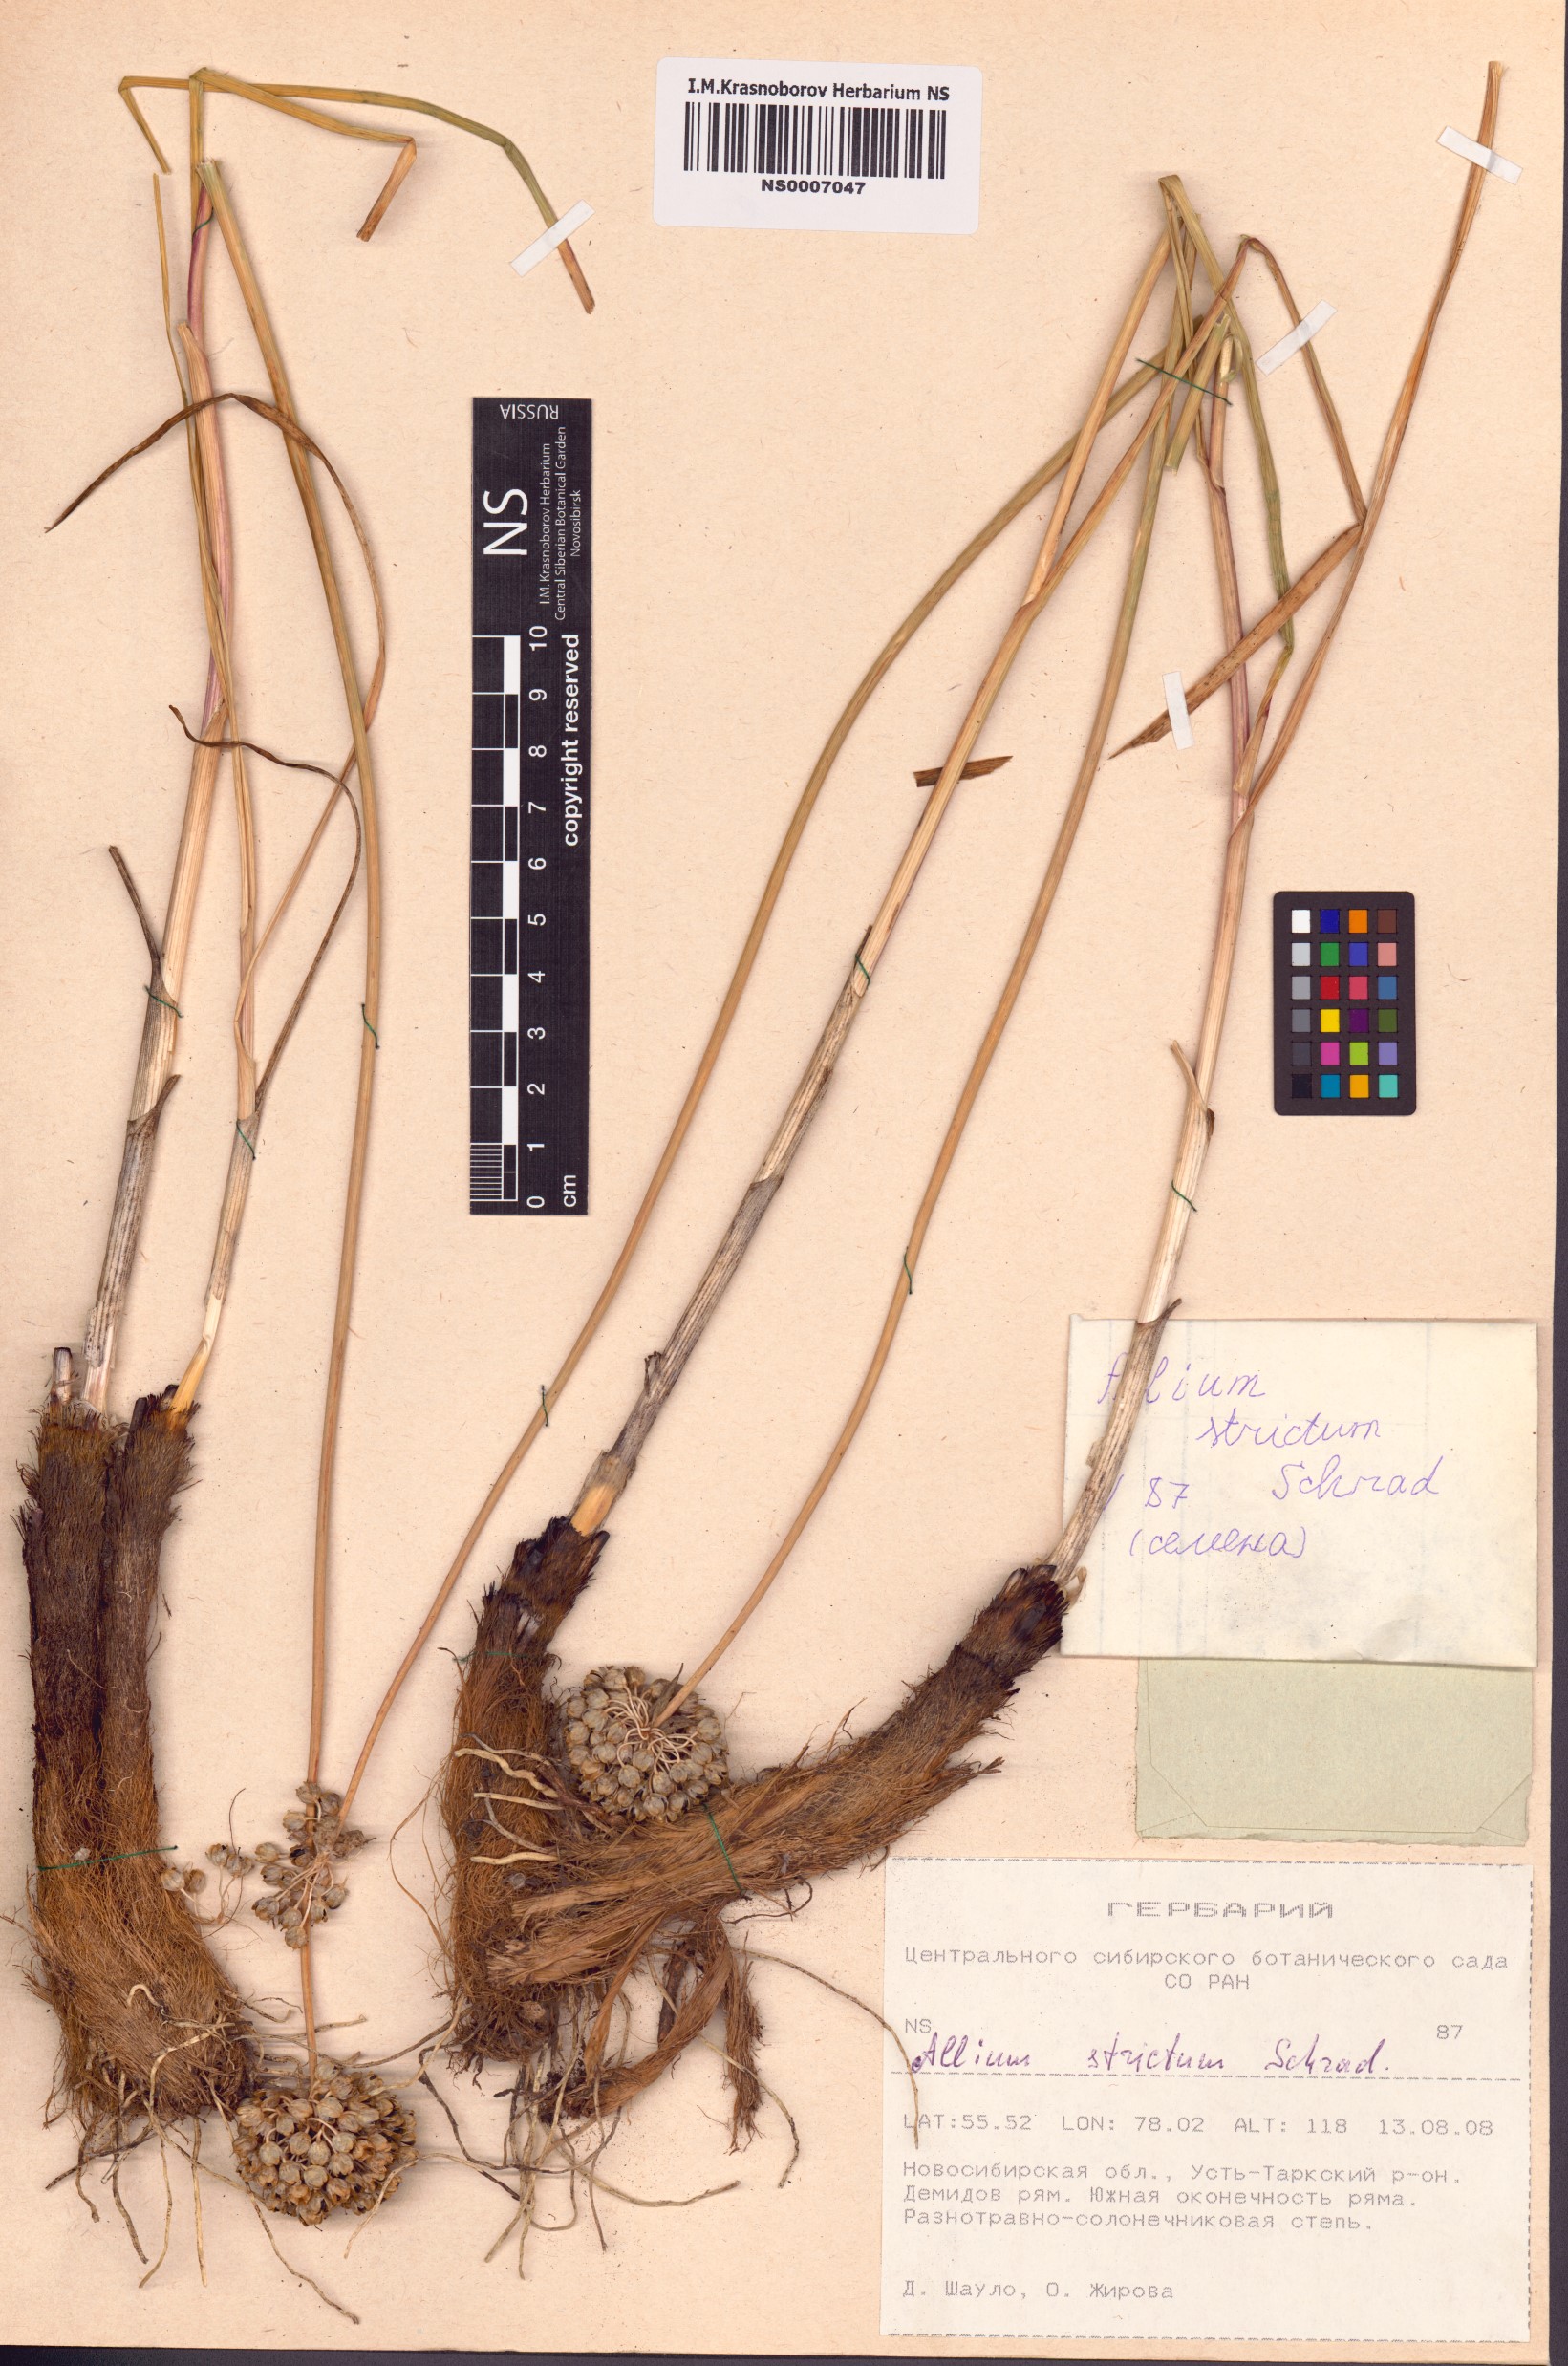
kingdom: Plantae
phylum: Tracheophyta
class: Liliopsida
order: Asparagales
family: Amaryllidaceae
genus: Allium
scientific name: Allium strictum
